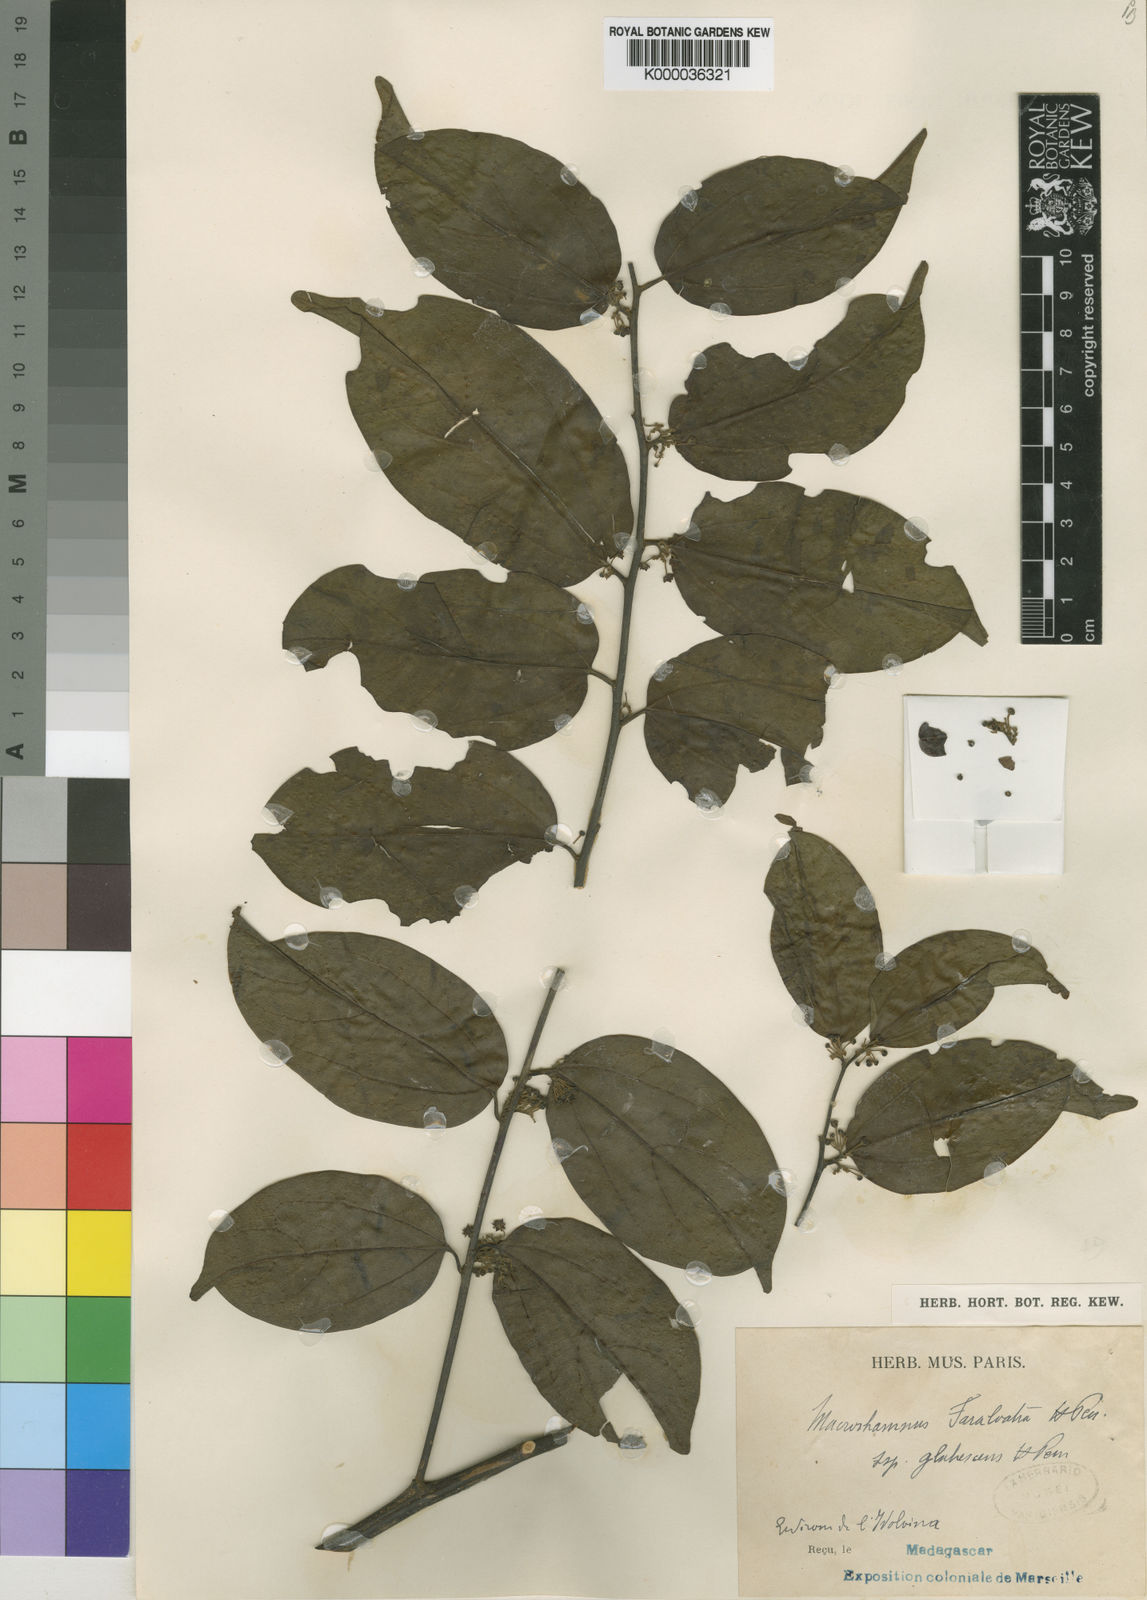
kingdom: Plantae
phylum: Tracheophyta
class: Magnoliopsida
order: Rosales
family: Rhamnaceae
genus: Colubrina
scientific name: Colubrina faralaotra
